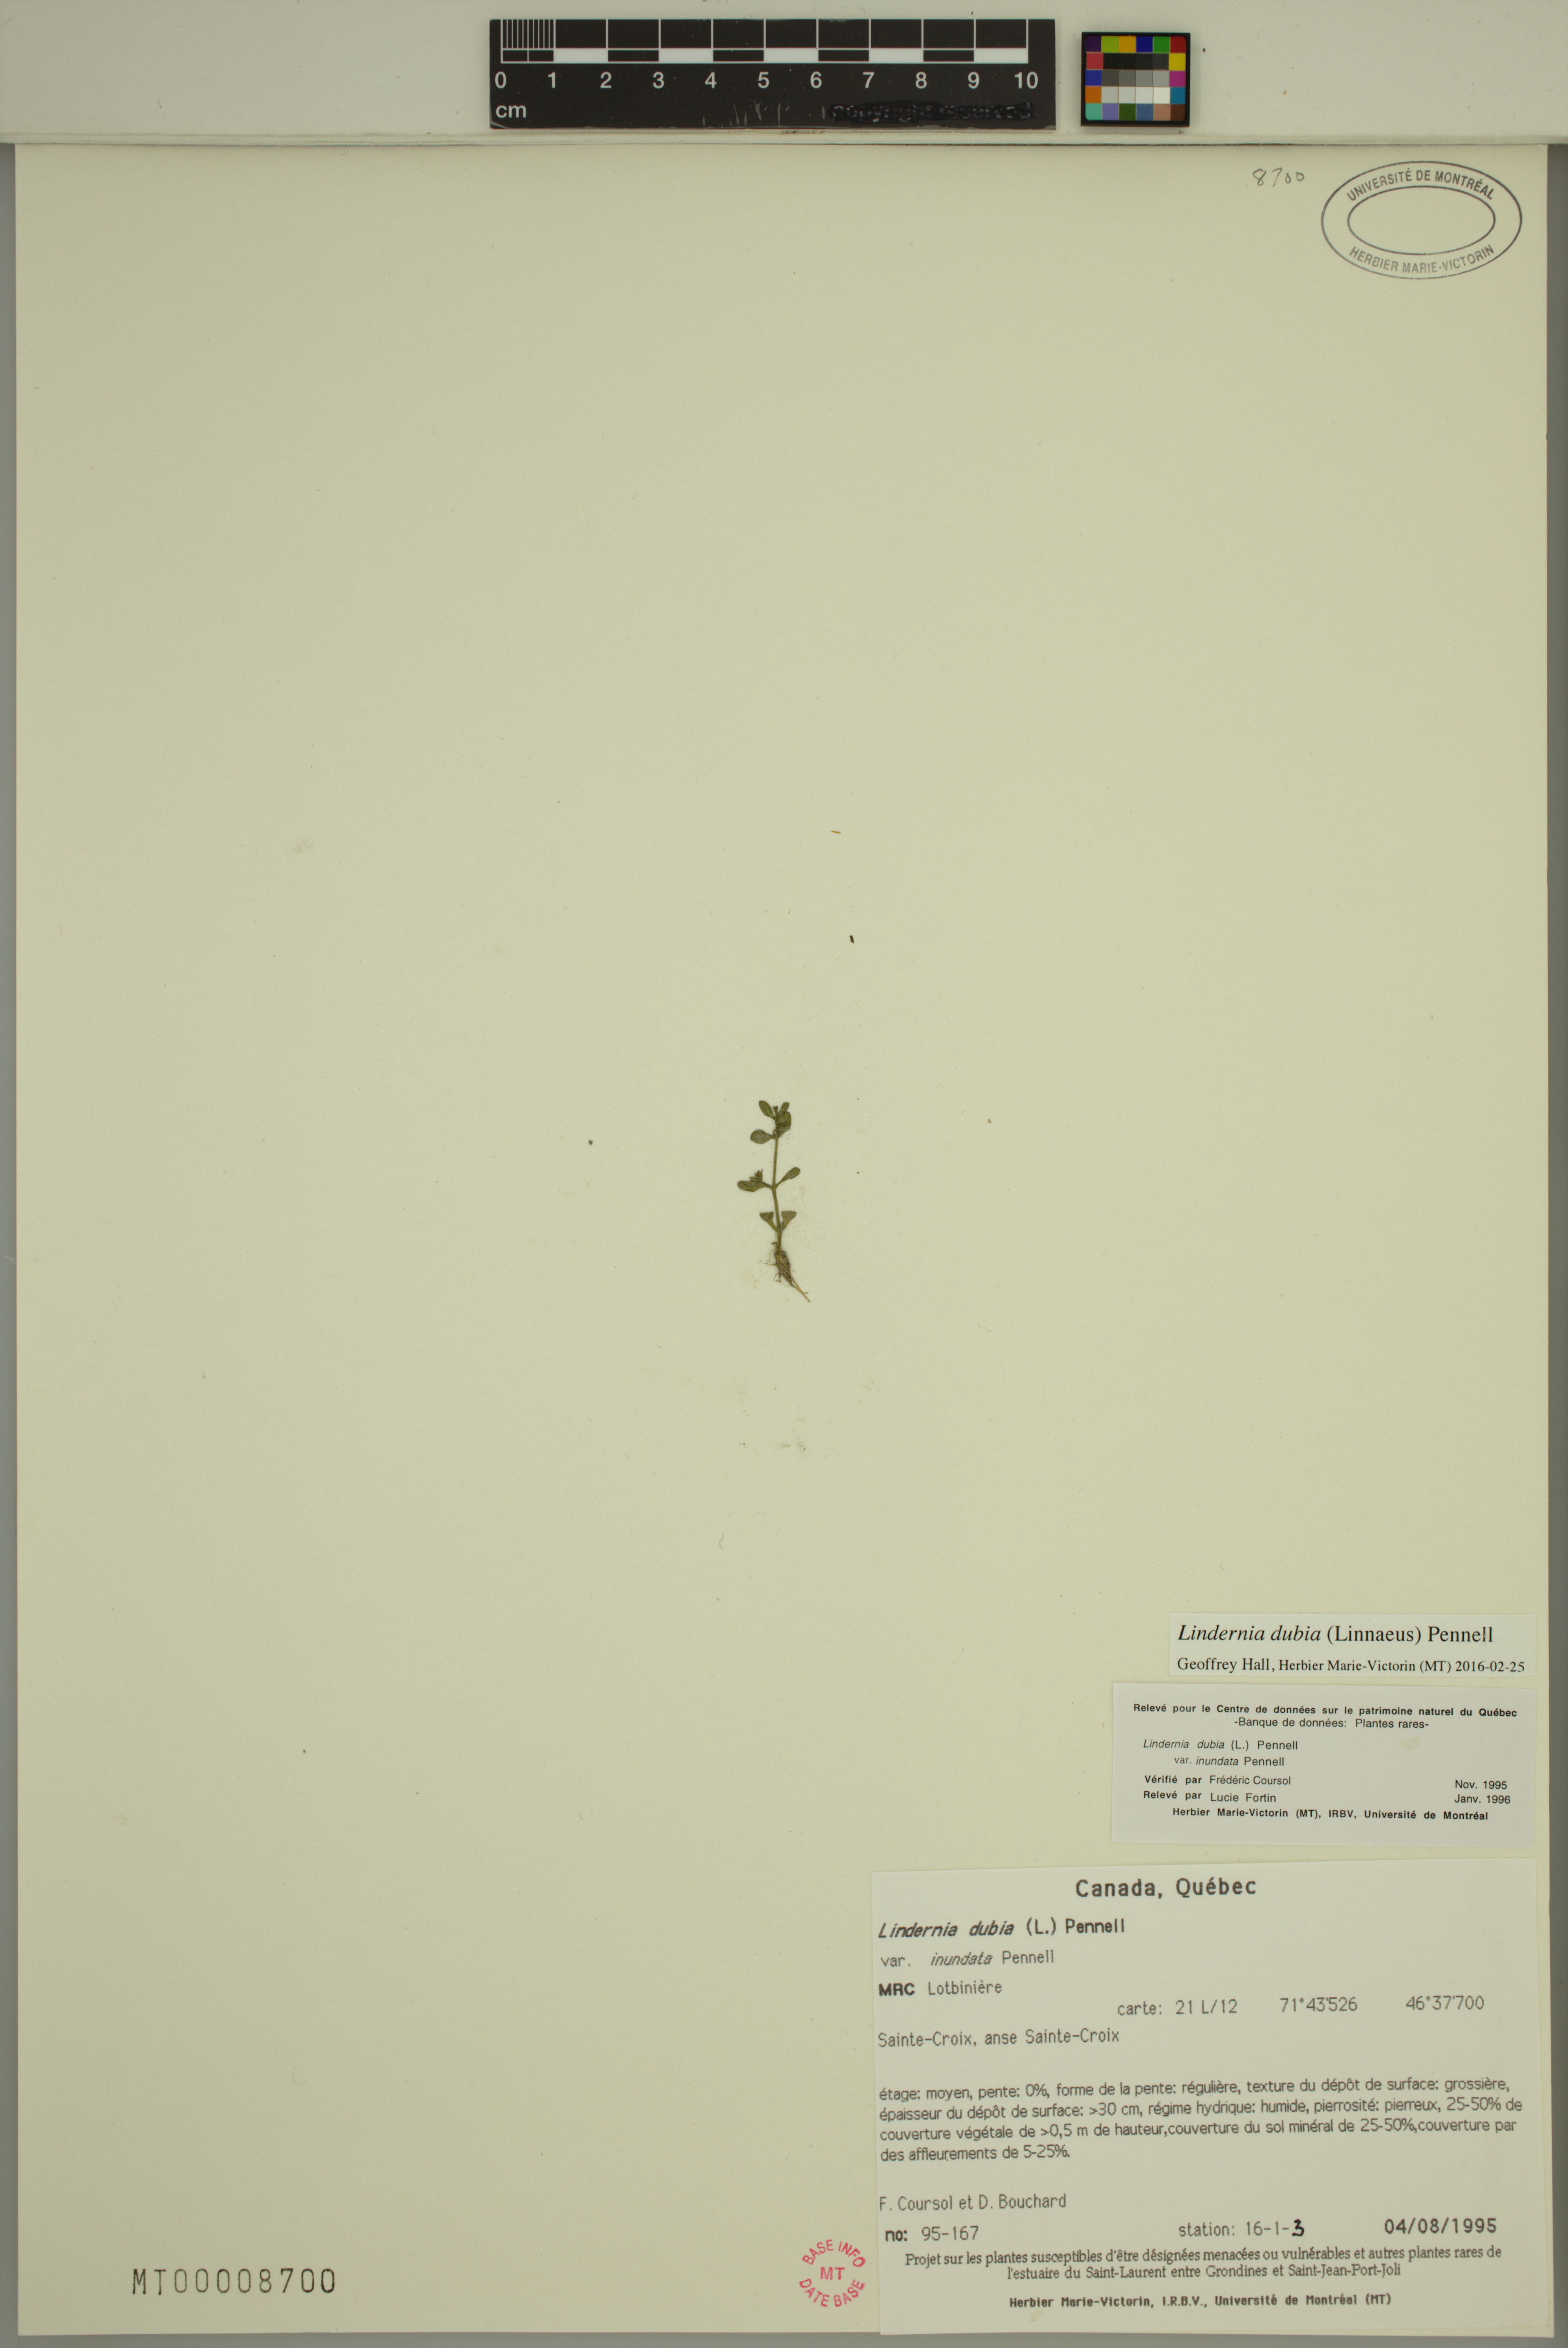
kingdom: Plantae
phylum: Tracheophyta
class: Magnoliopsida
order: Lamiales
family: Linderniaceae
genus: Lindernia
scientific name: Lindernia dubia
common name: Annual false pimpernel
